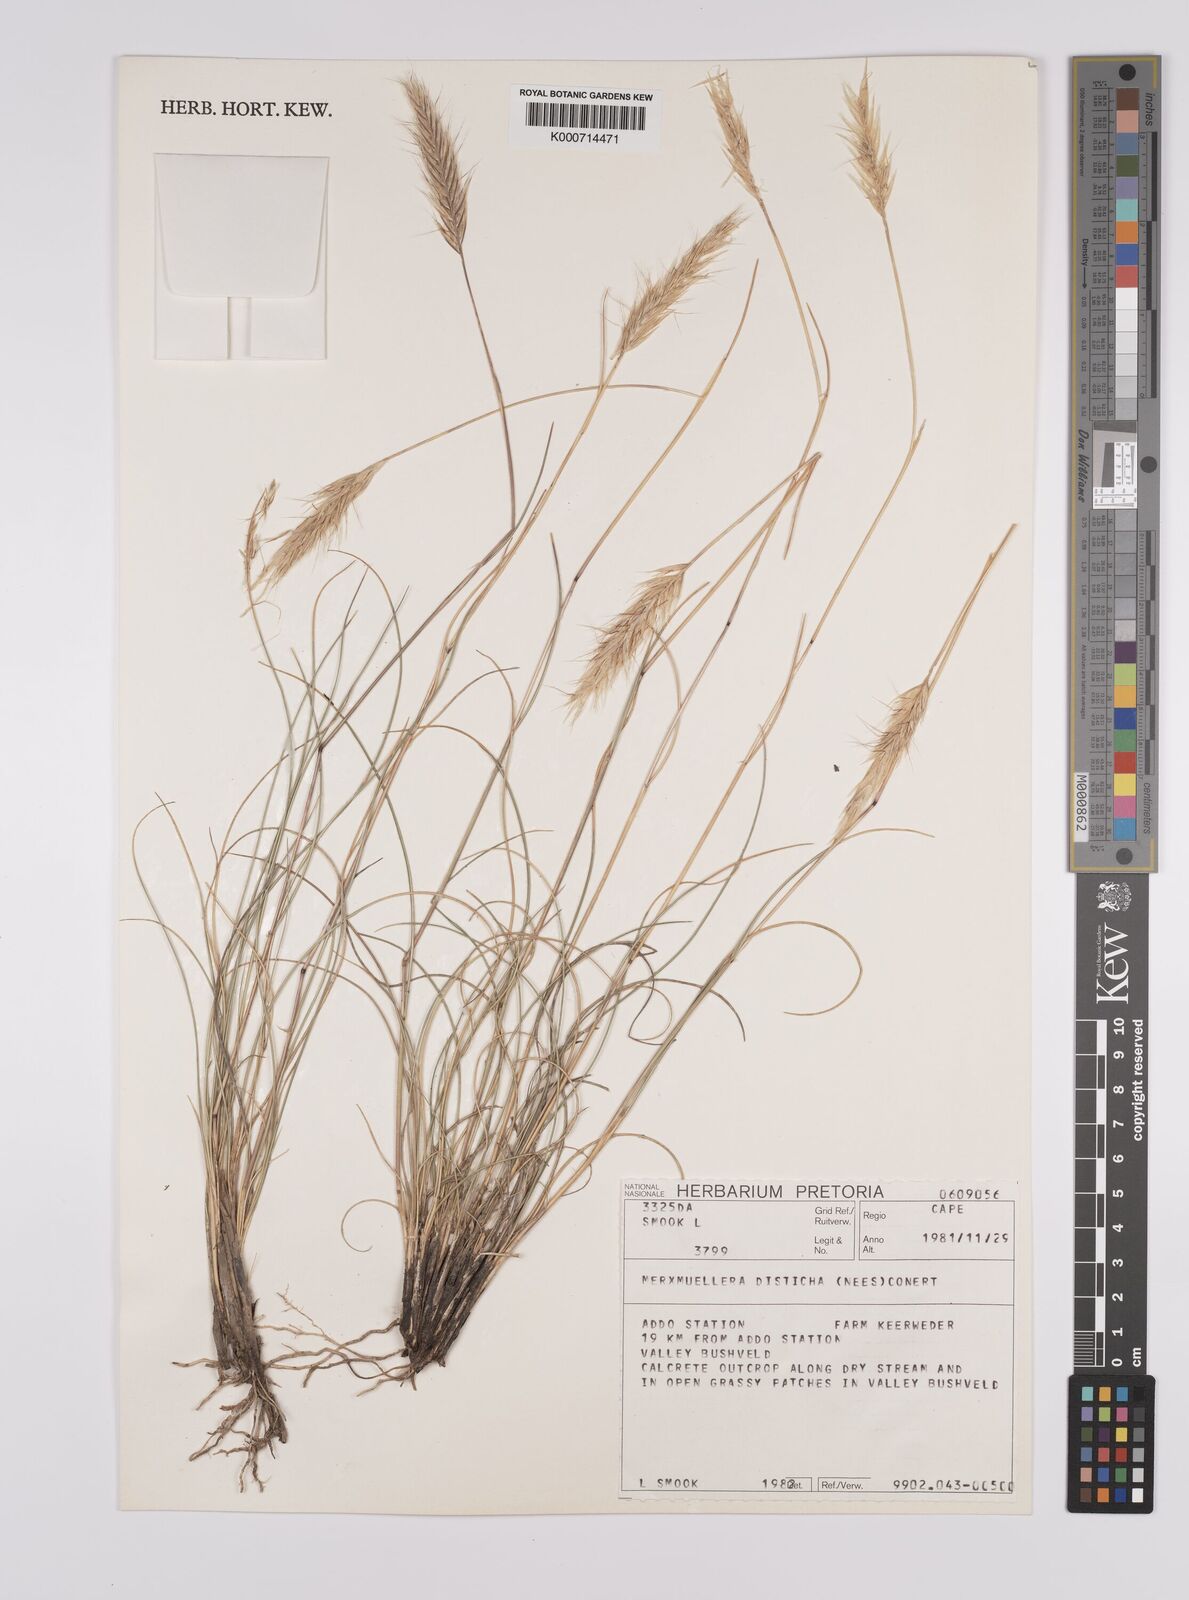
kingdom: Plantae
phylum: Tracheophyta
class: Liliopsida
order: Poales
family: Poaceae
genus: Tenaxia
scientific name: Tenaxia disticha
